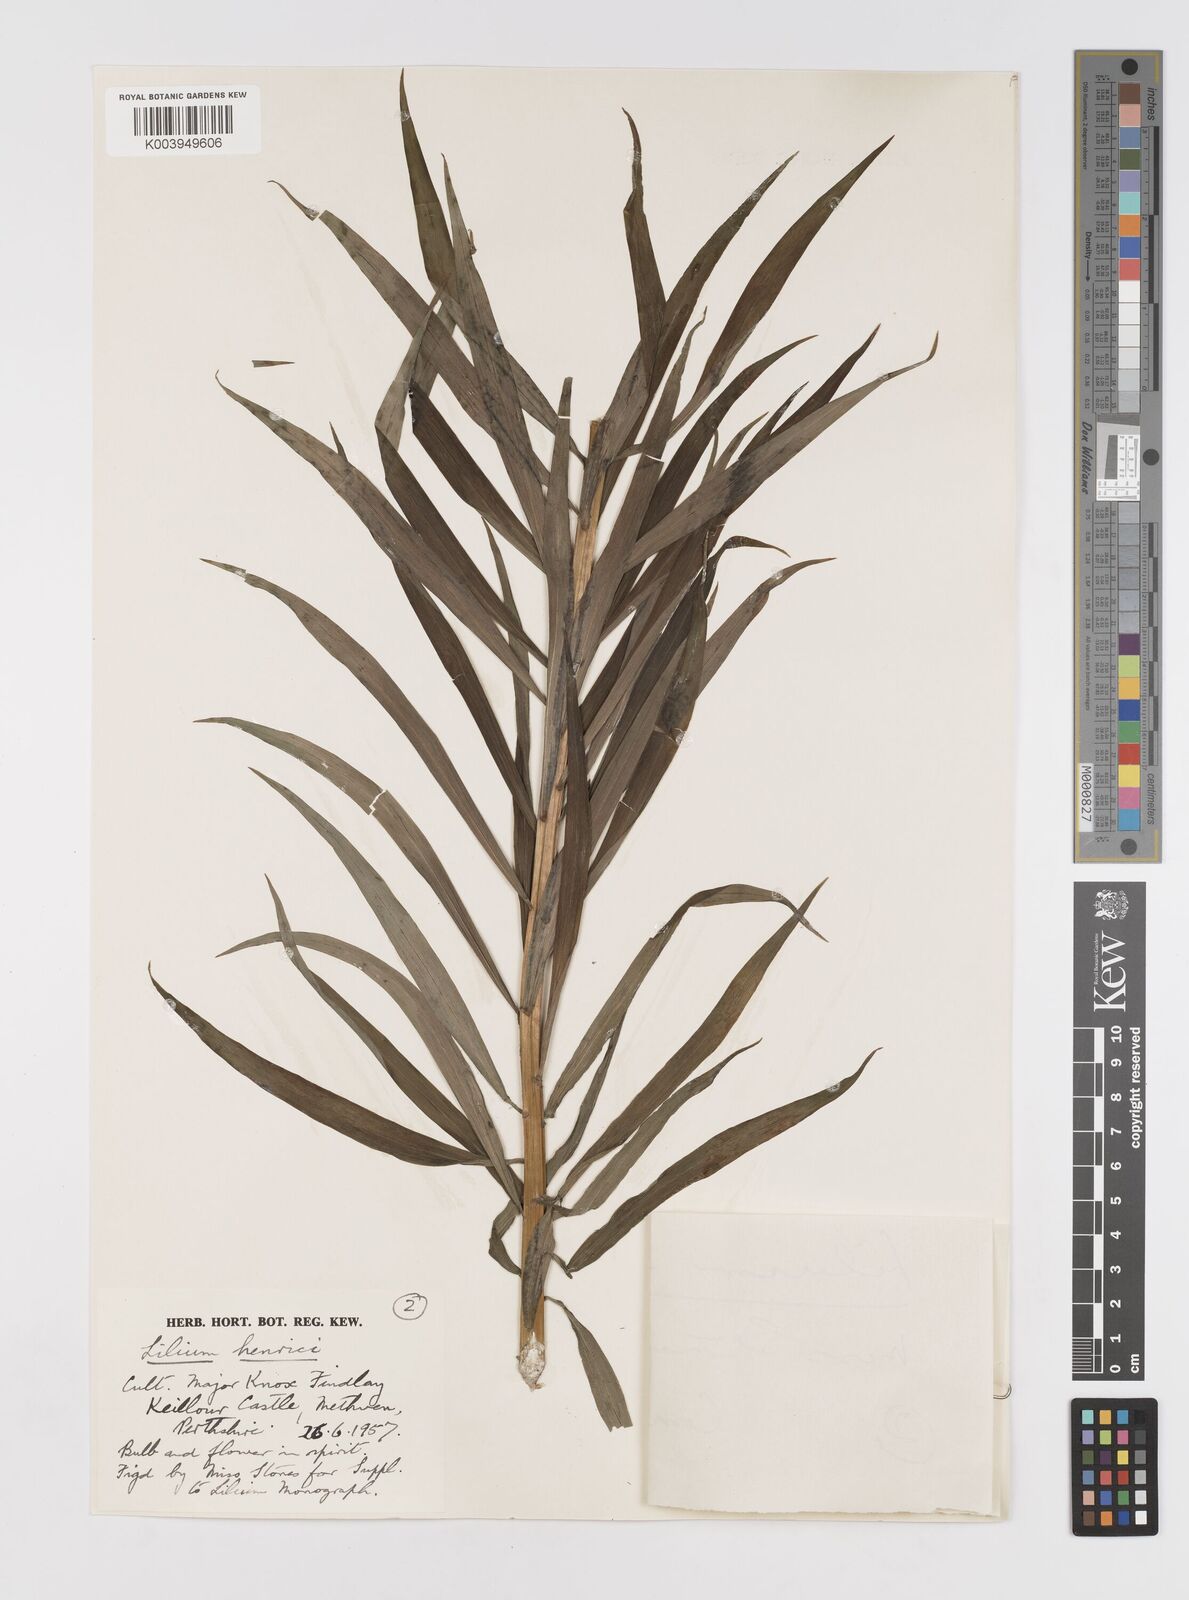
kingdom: Plantae
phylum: Tracheophyta
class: Liliopsida
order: Liliales
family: Liliaceae
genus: Lilium
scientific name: Lilium henrici
